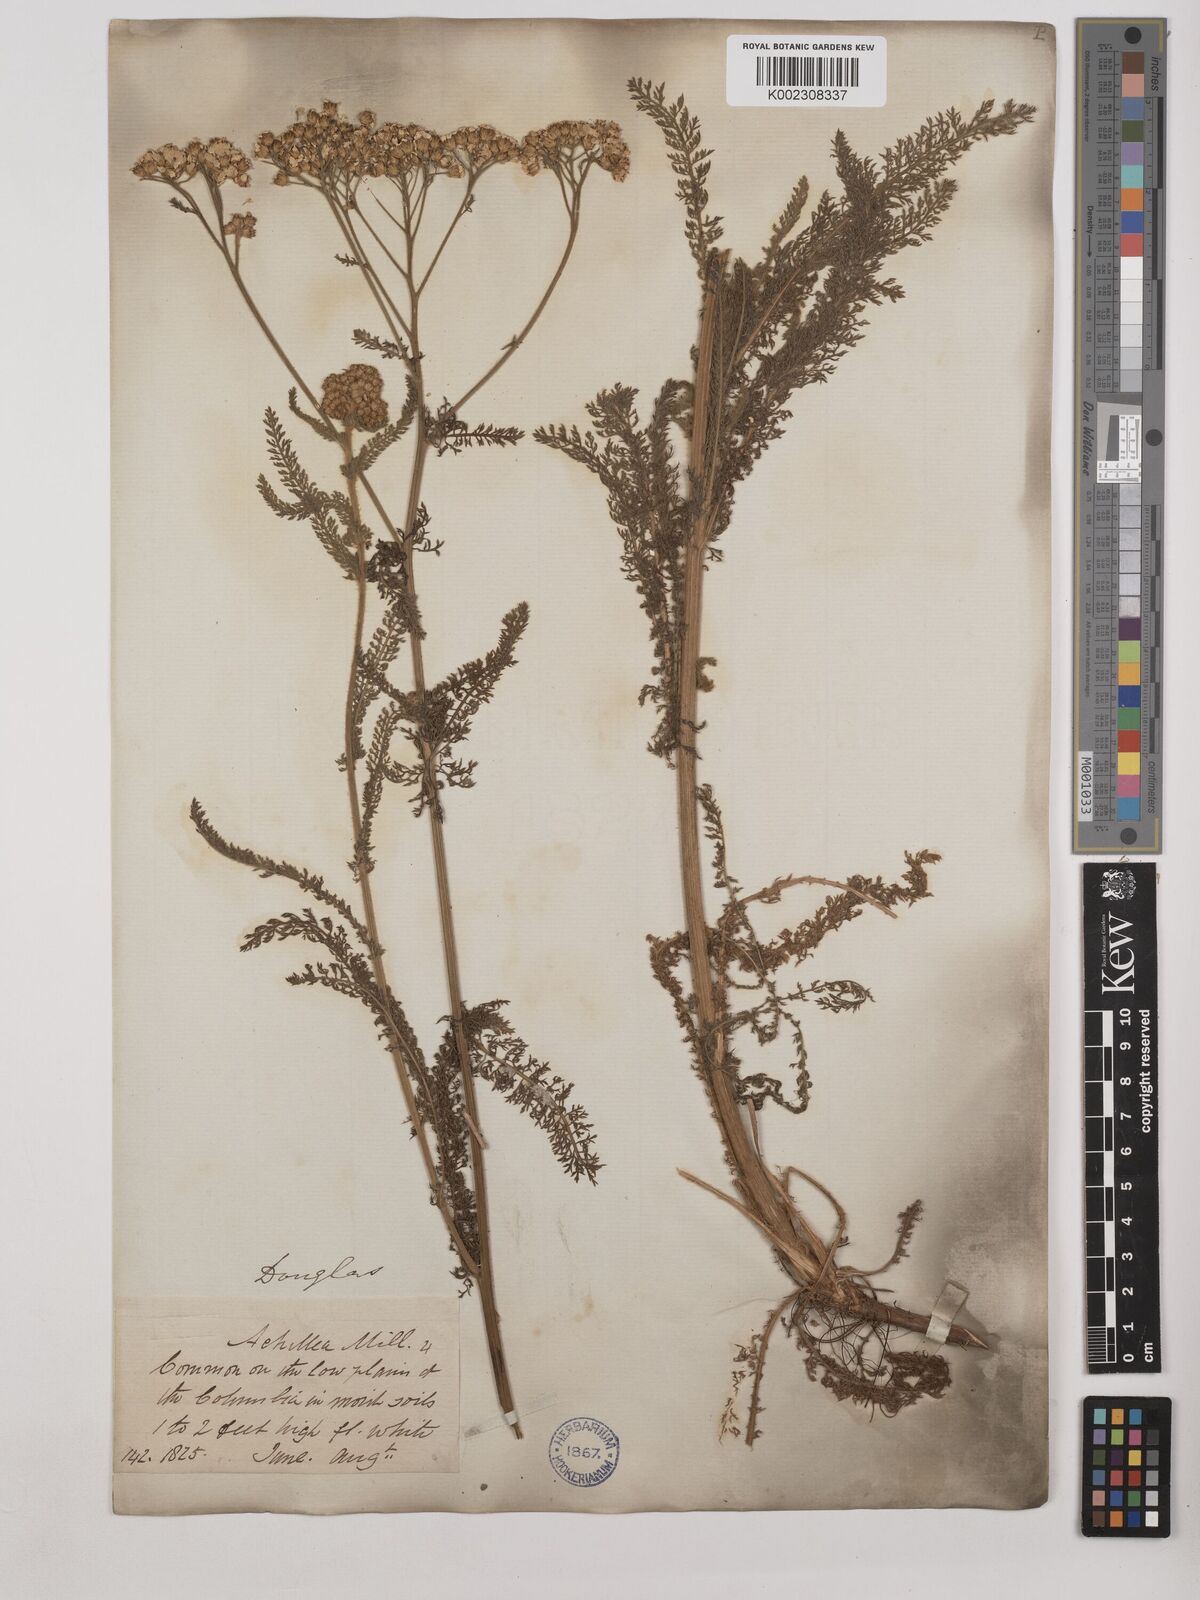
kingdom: Plantae
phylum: Tracheophyta
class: Magnoliopsida
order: Asterales
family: Asteraceae
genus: Achillea
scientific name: Achillea millefolium
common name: Yarrow
